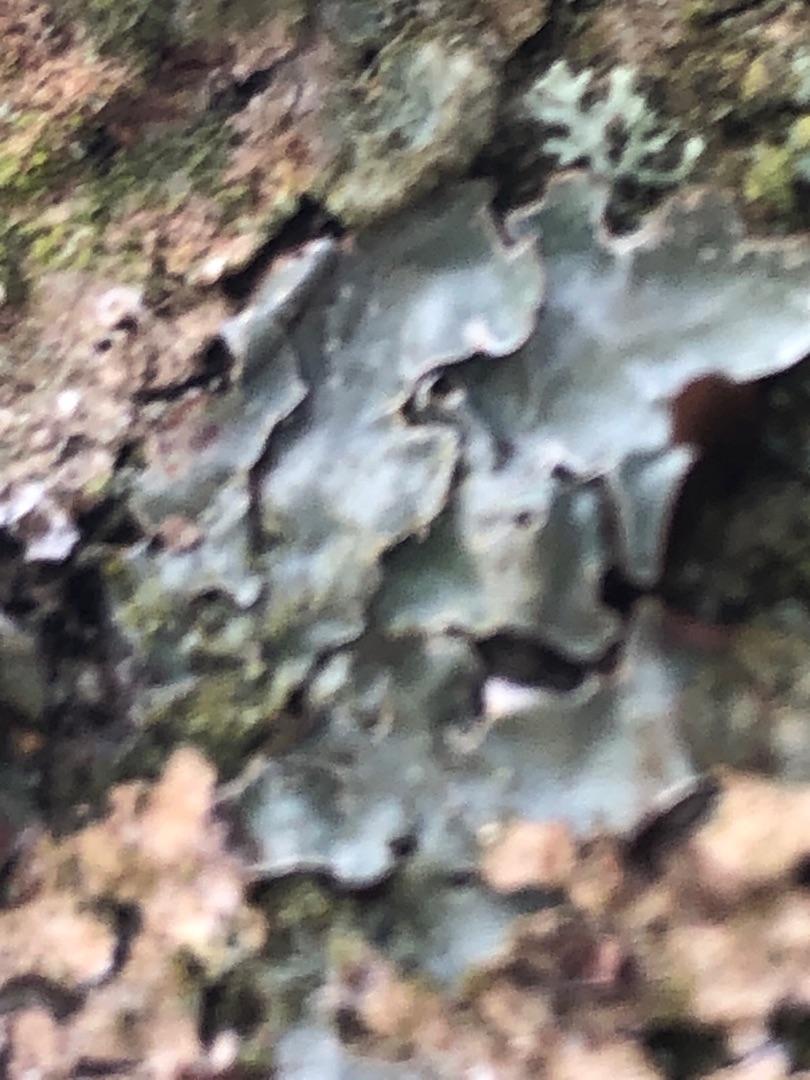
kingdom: Fungi
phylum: Ascomycota
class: Lecanoromycetes
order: Lecanorales
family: Parmeliaceae
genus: Parmelia
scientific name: Parmelia sulcata
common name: Rynket skållav
